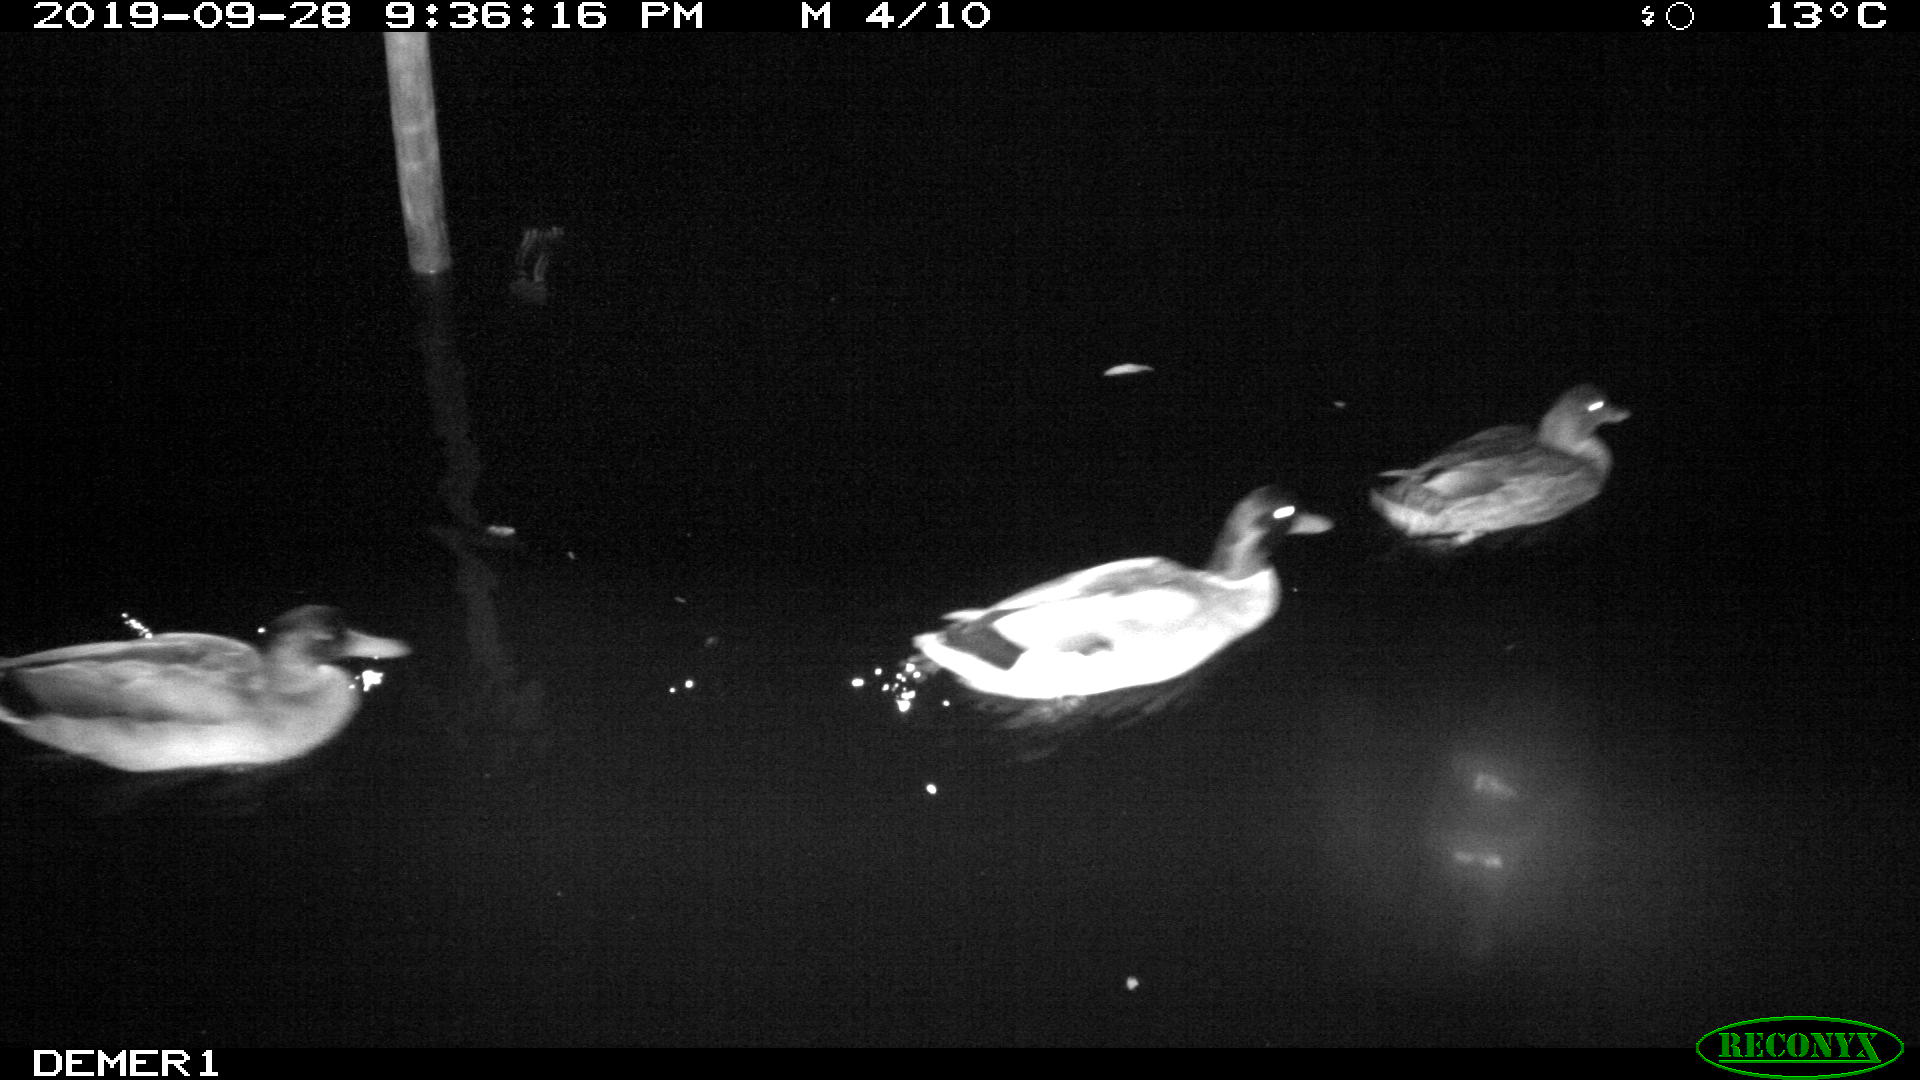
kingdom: Animalia
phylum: Chordata
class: Aves
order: Anseriformes
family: Anatidae
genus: Anas
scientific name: Anas platyrhynchos
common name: Mallard
